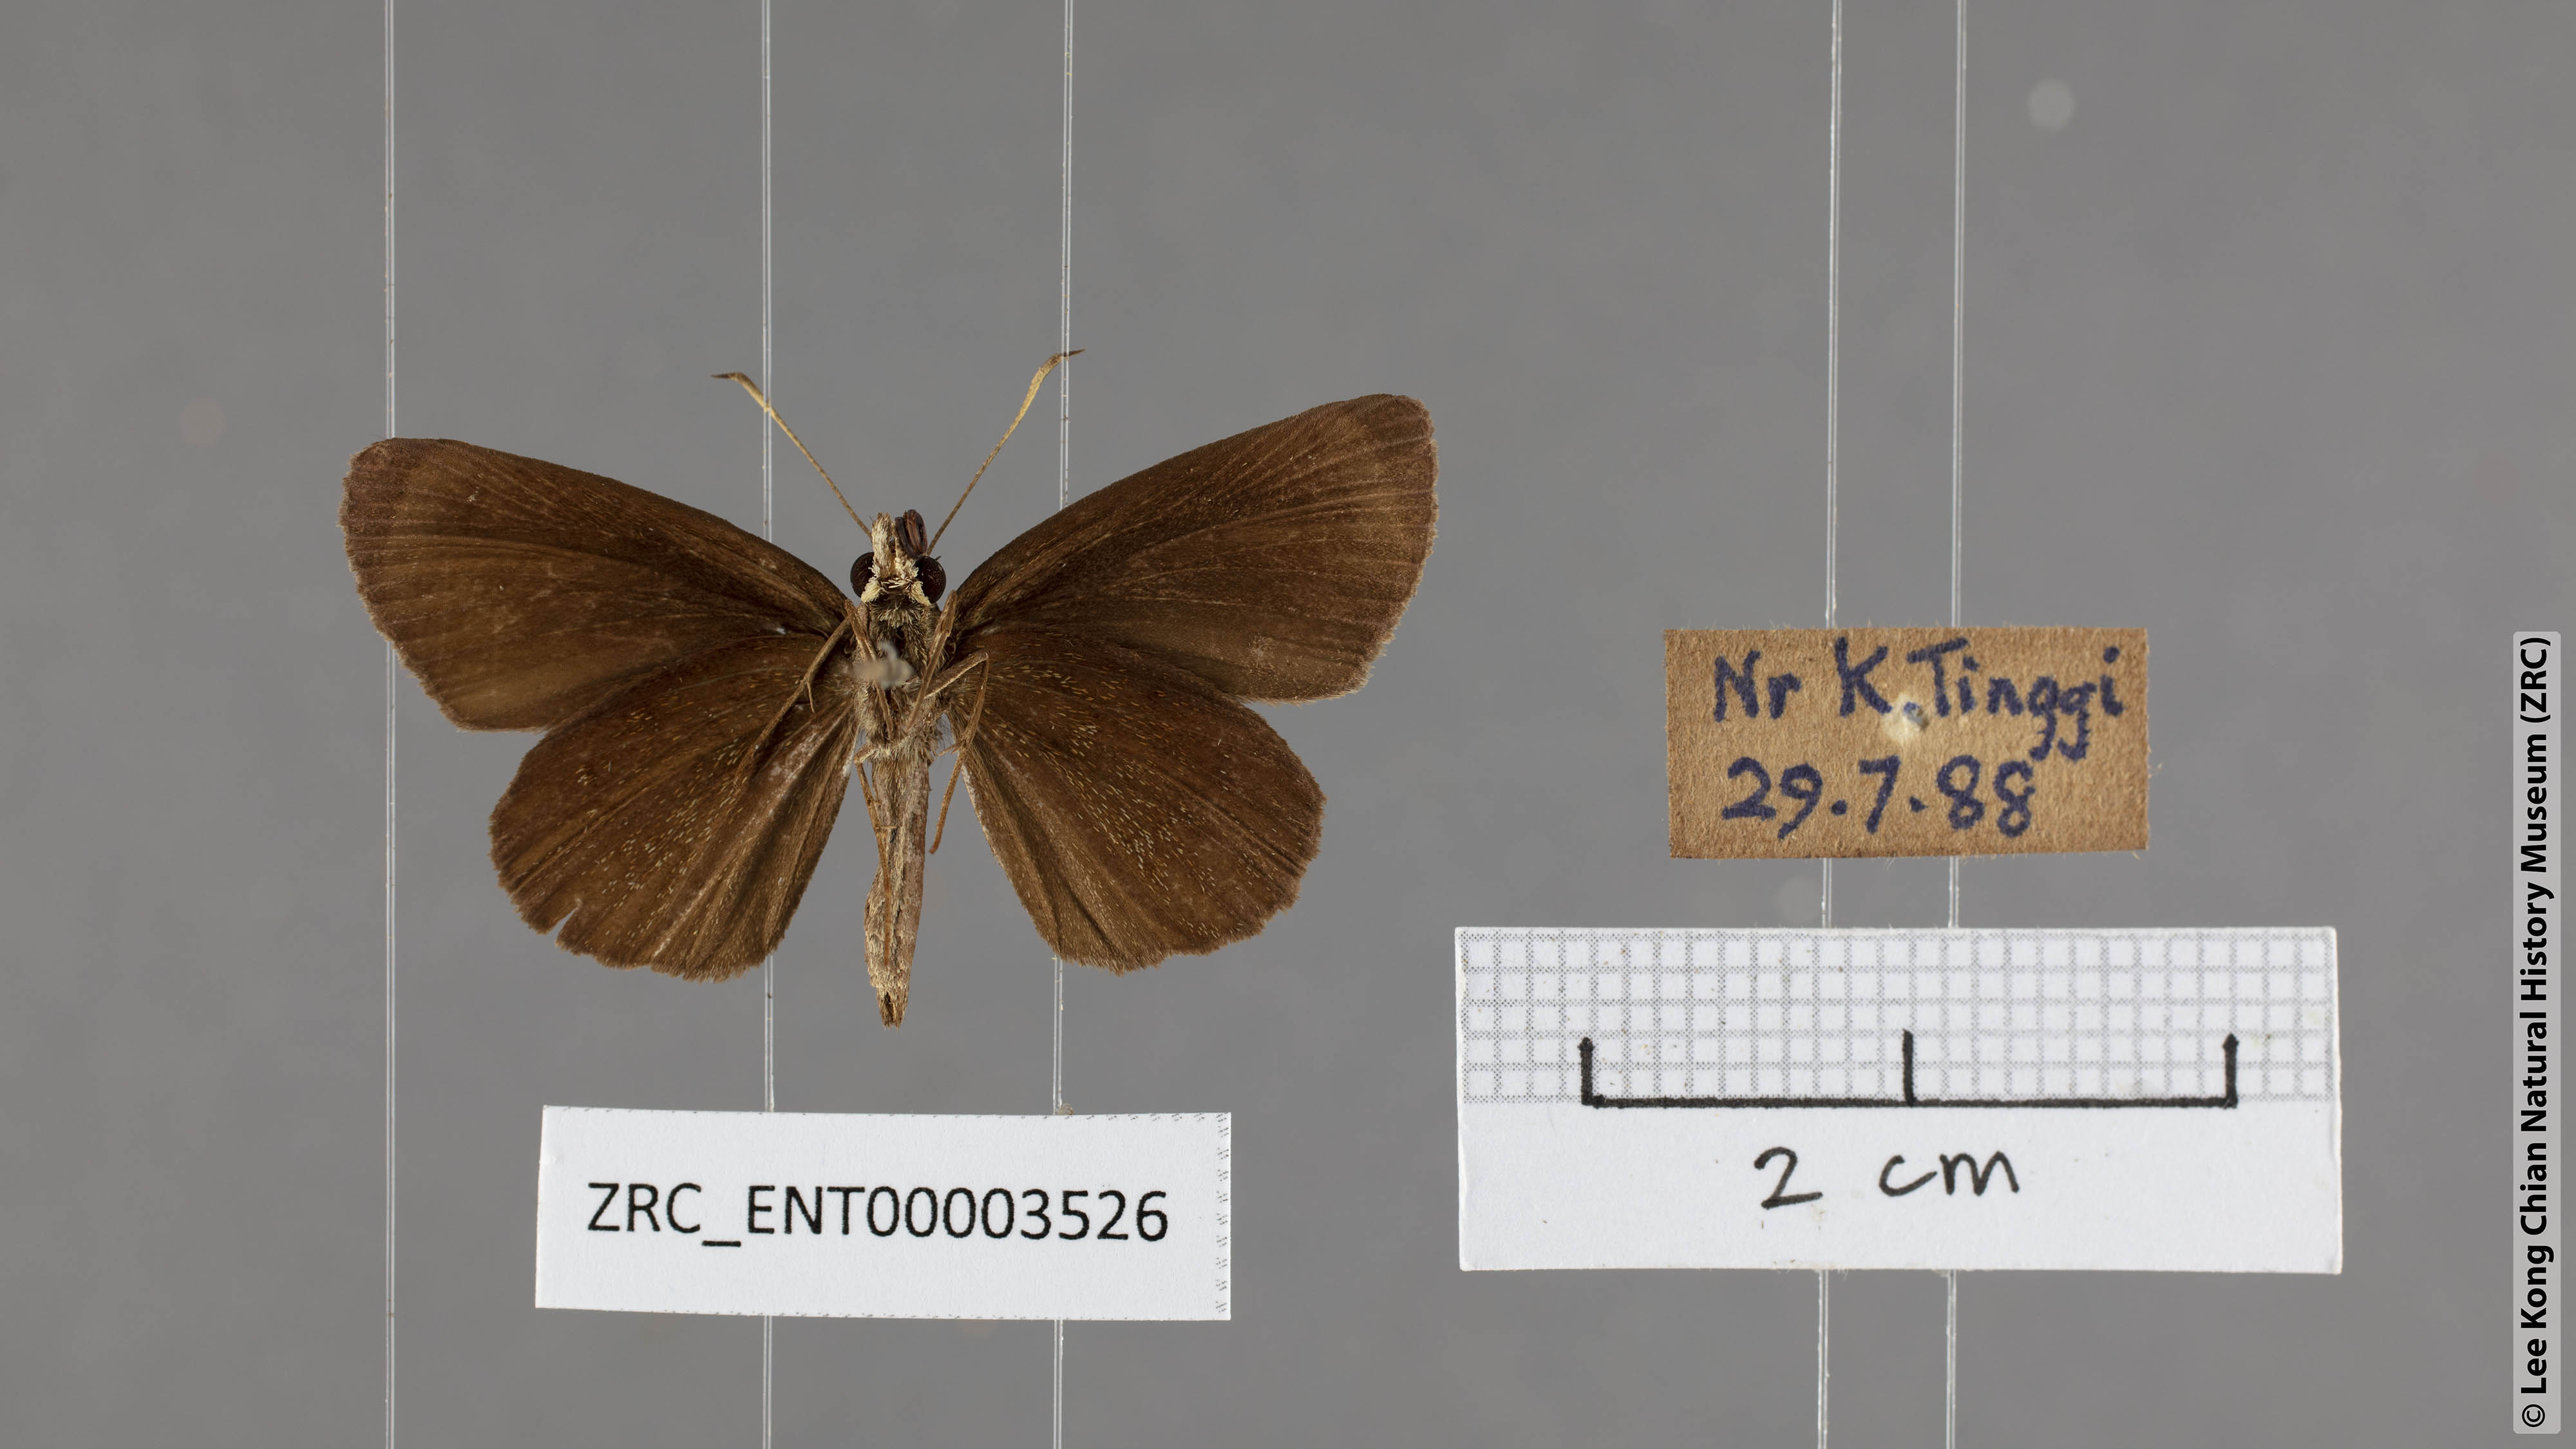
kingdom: Animalia
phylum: Arthropoda
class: Insecta
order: Lepidoptera
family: Hesperiidae
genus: Quedara
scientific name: Quedara monteithi
